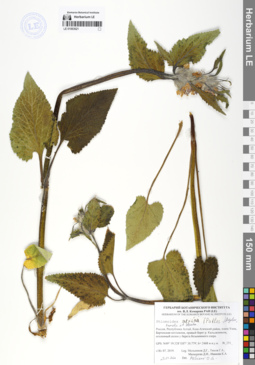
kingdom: Plantae
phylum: Tracheophyta
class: Magnoliopsida
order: Lamiales
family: Lamiaceae
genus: Phlomoides
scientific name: Phlomoides alpina
